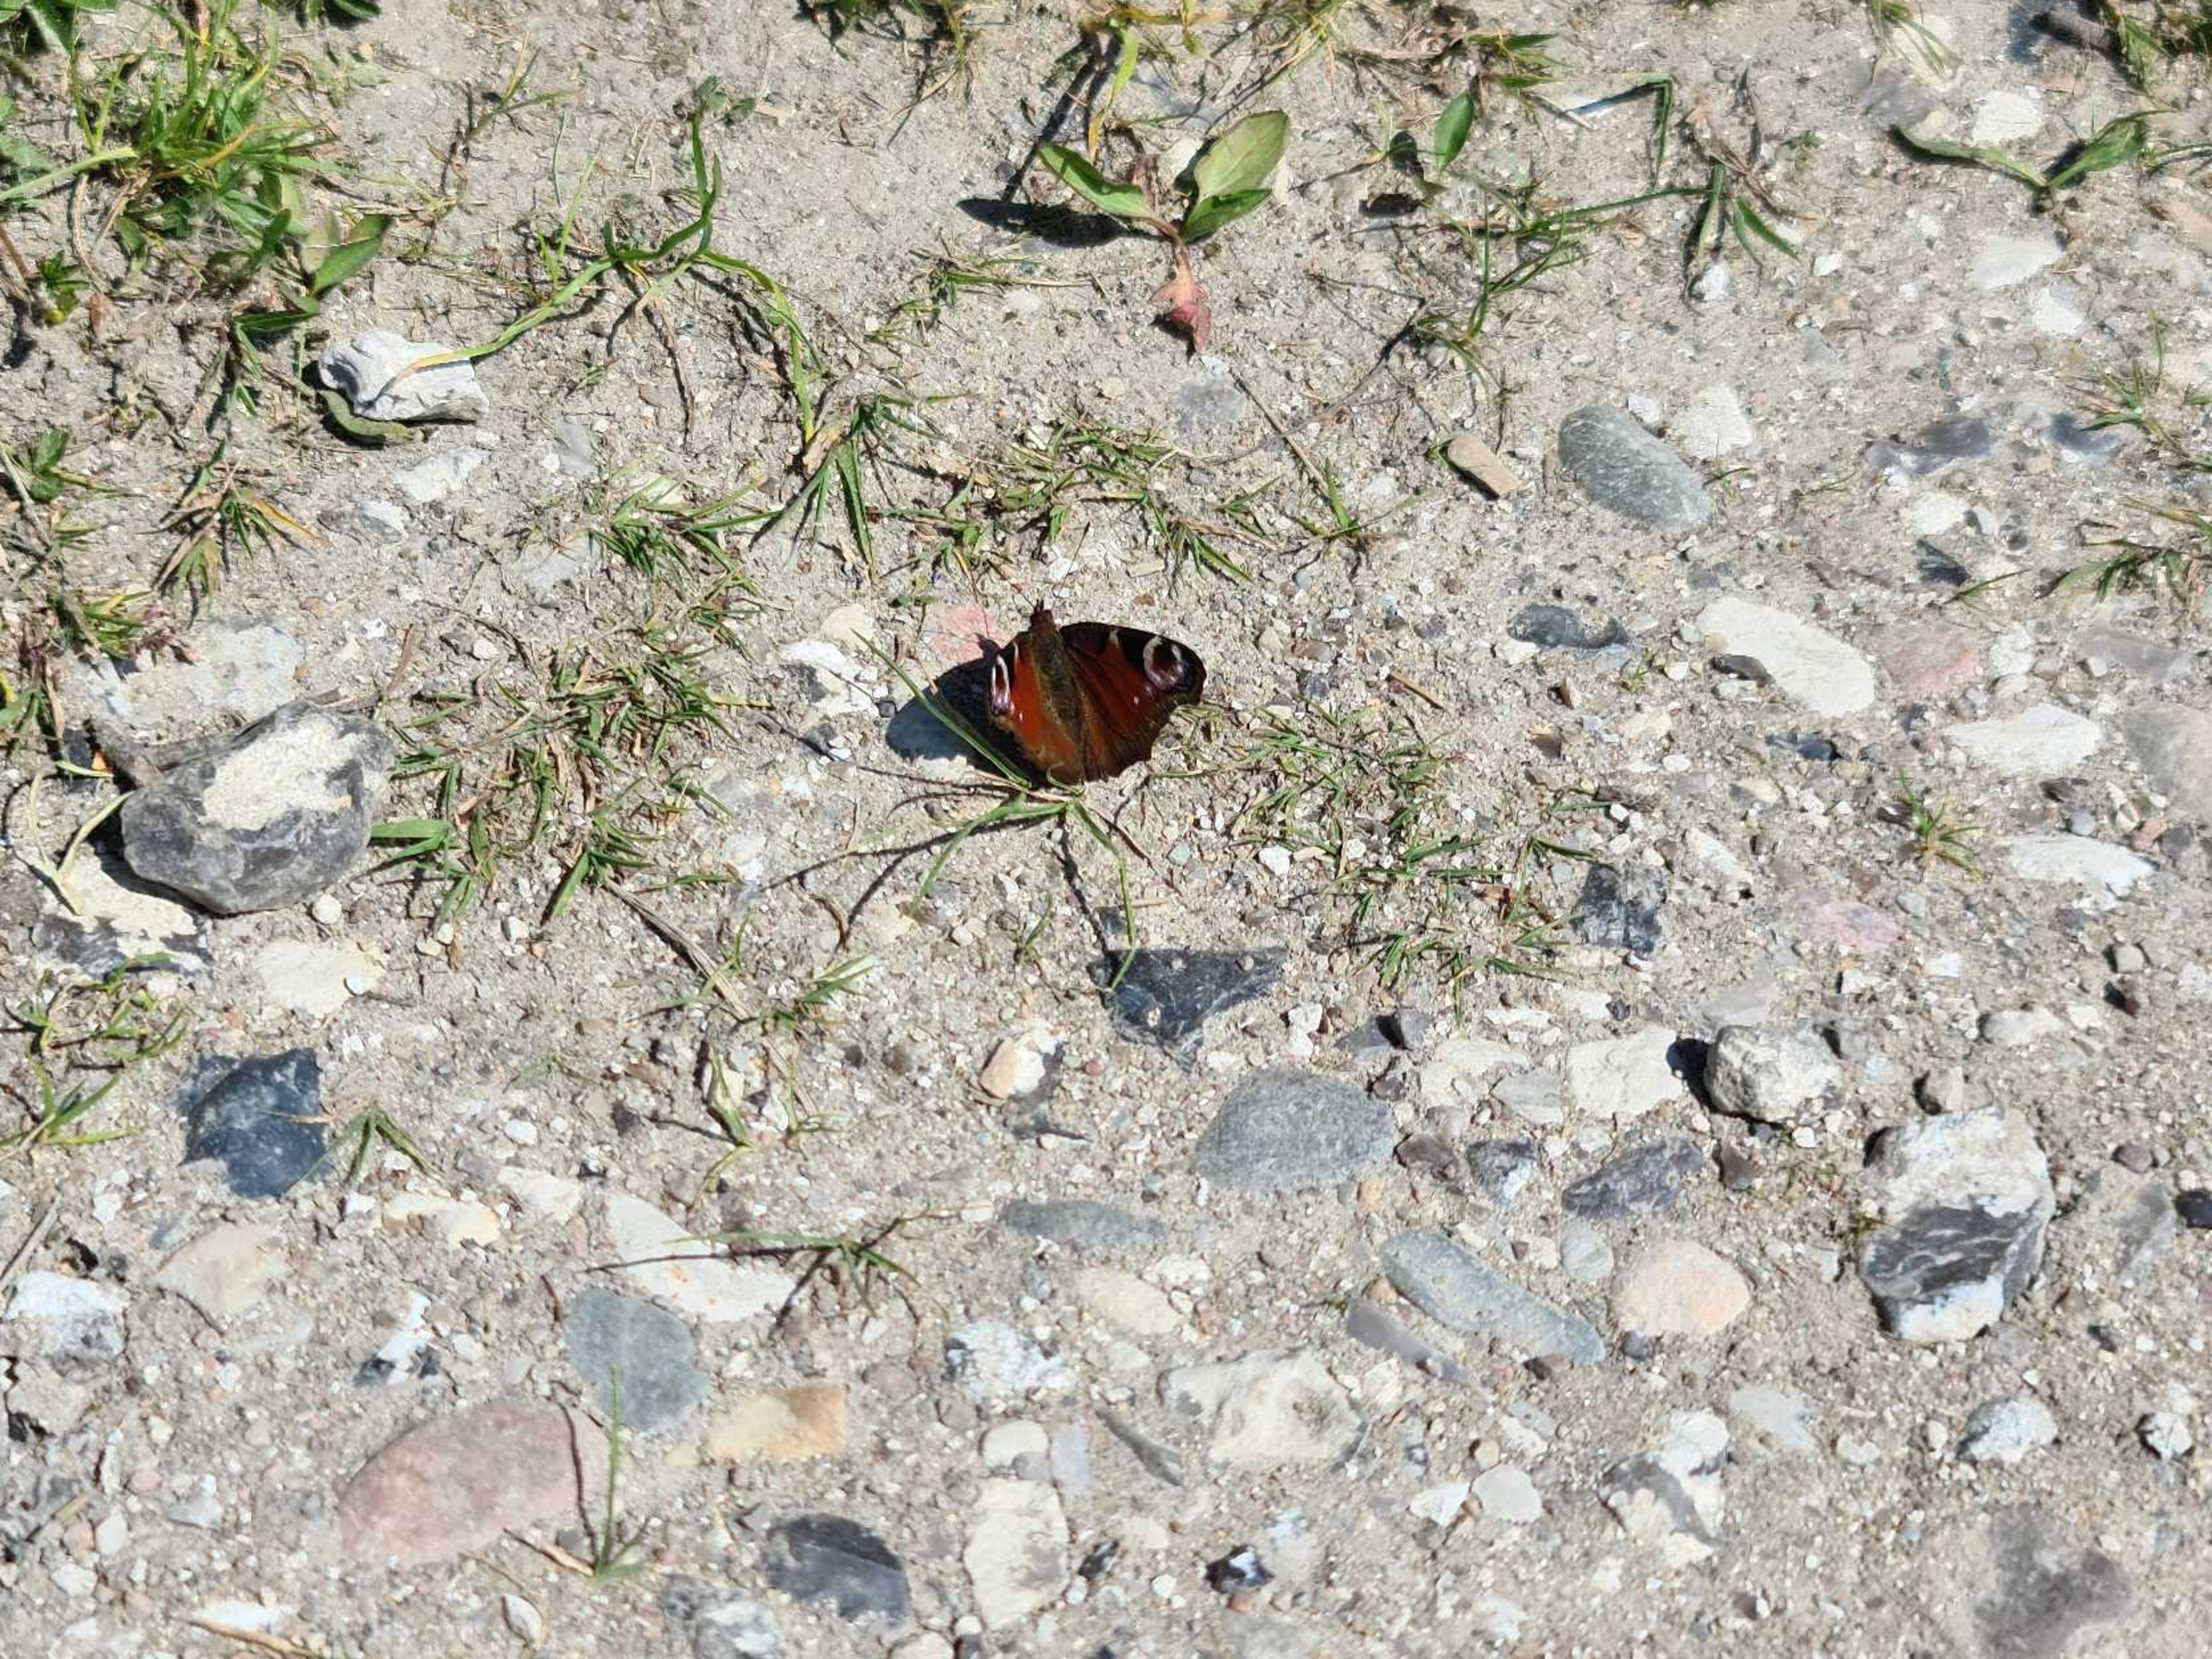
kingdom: Animalia
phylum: Arthropoda
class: Insecta
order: Lepidoptera
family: Nymphalidae
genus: Aglais
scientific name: Aglais io
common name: Dagpåfugleøje
